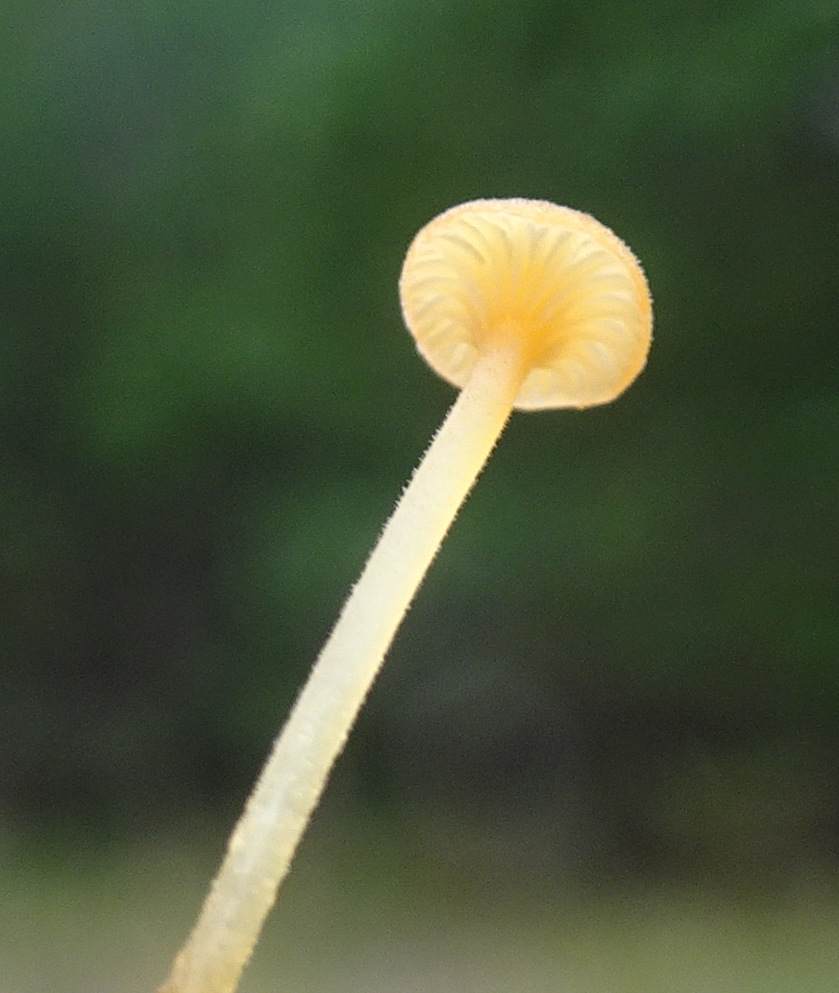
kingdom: Fungi
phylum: Basidiomycota
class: Agaricomycetes
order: Hymenochaetales
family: Rickenellaceae
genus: Rickenella
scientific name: Rickenella fibula
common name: orange mosnavlehat
